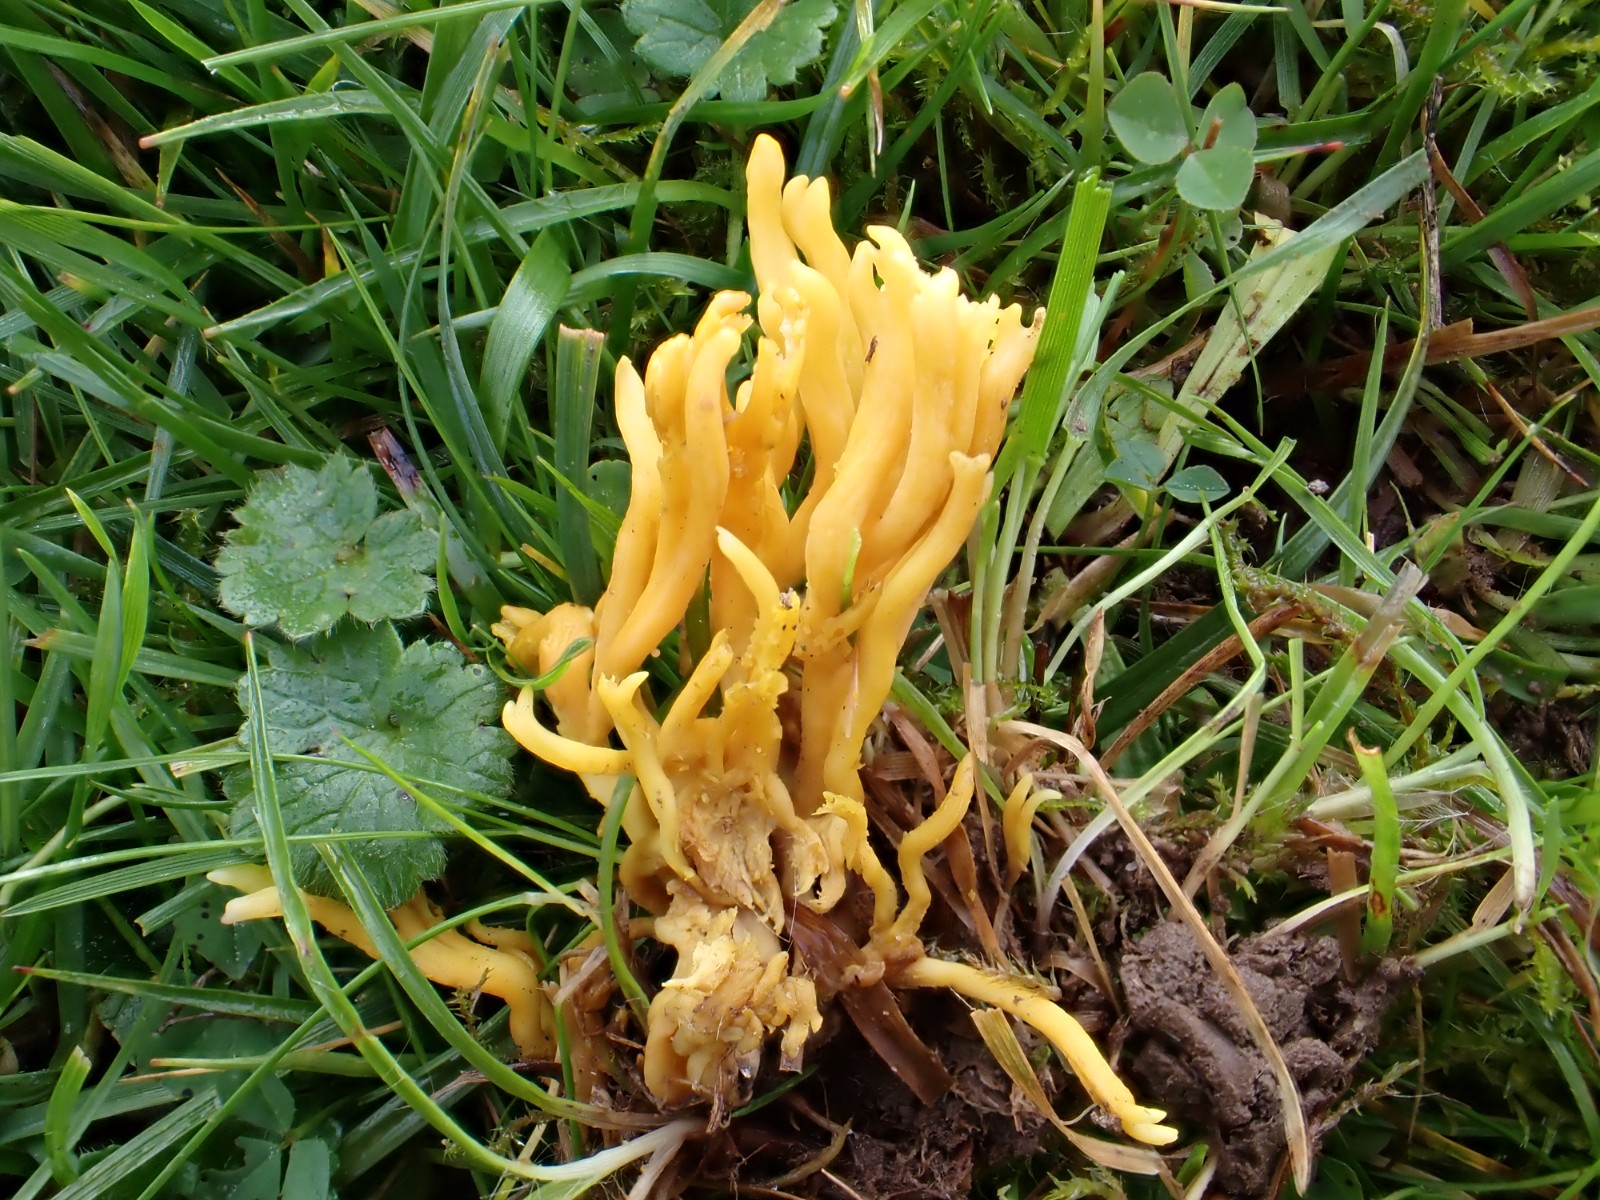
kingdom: Fungi
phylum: Basidiomycota
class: Agaricomycetes
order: Agaricales
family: Clavariaceae
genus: Clavulinopsis
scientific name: Clavulinopsis corniculata
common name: eng-køllesvamp
